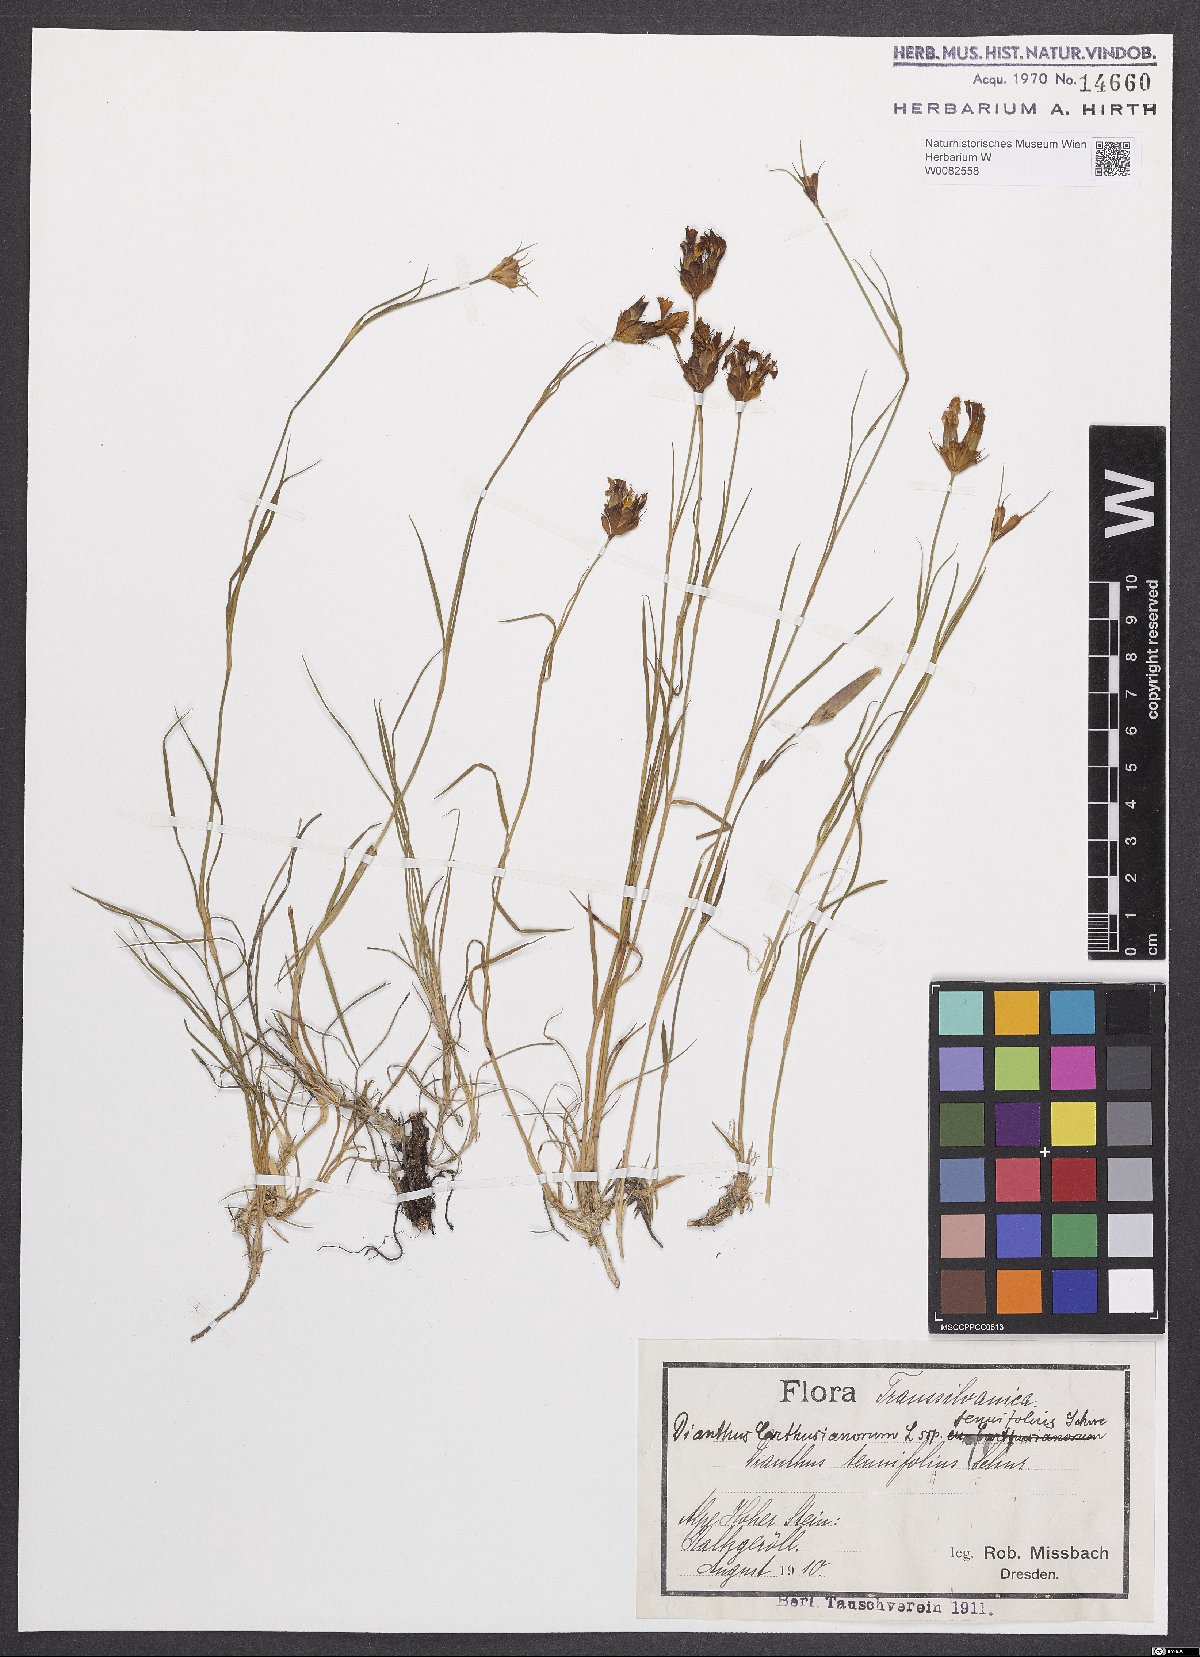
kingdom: Plantae
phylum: Tracheophyta
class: Magnoliopsida
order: Caryophyllales
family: Caryophyllaceae
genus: Dianthus
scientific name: Dianthus carthusianorum
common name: Carthusian pink
